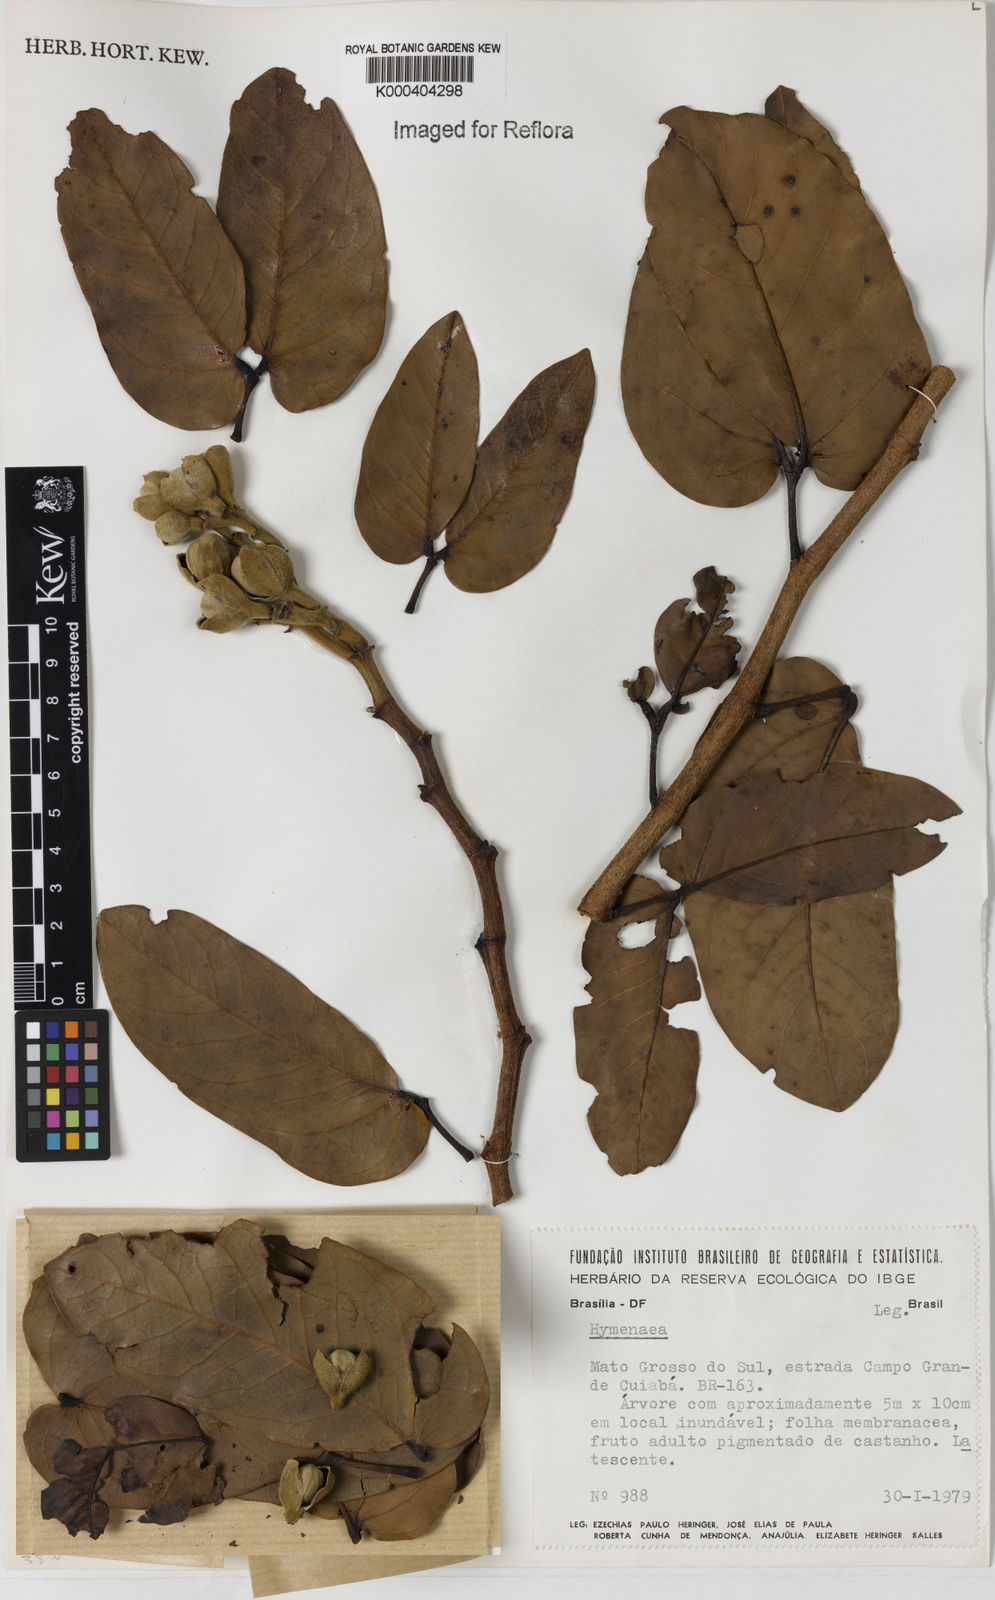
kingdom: Plantae
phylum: Tracheophyta
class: Magnoliopsida
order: Fabales
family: Fabaceae
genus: Hymenaea
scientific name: Hymenaea
